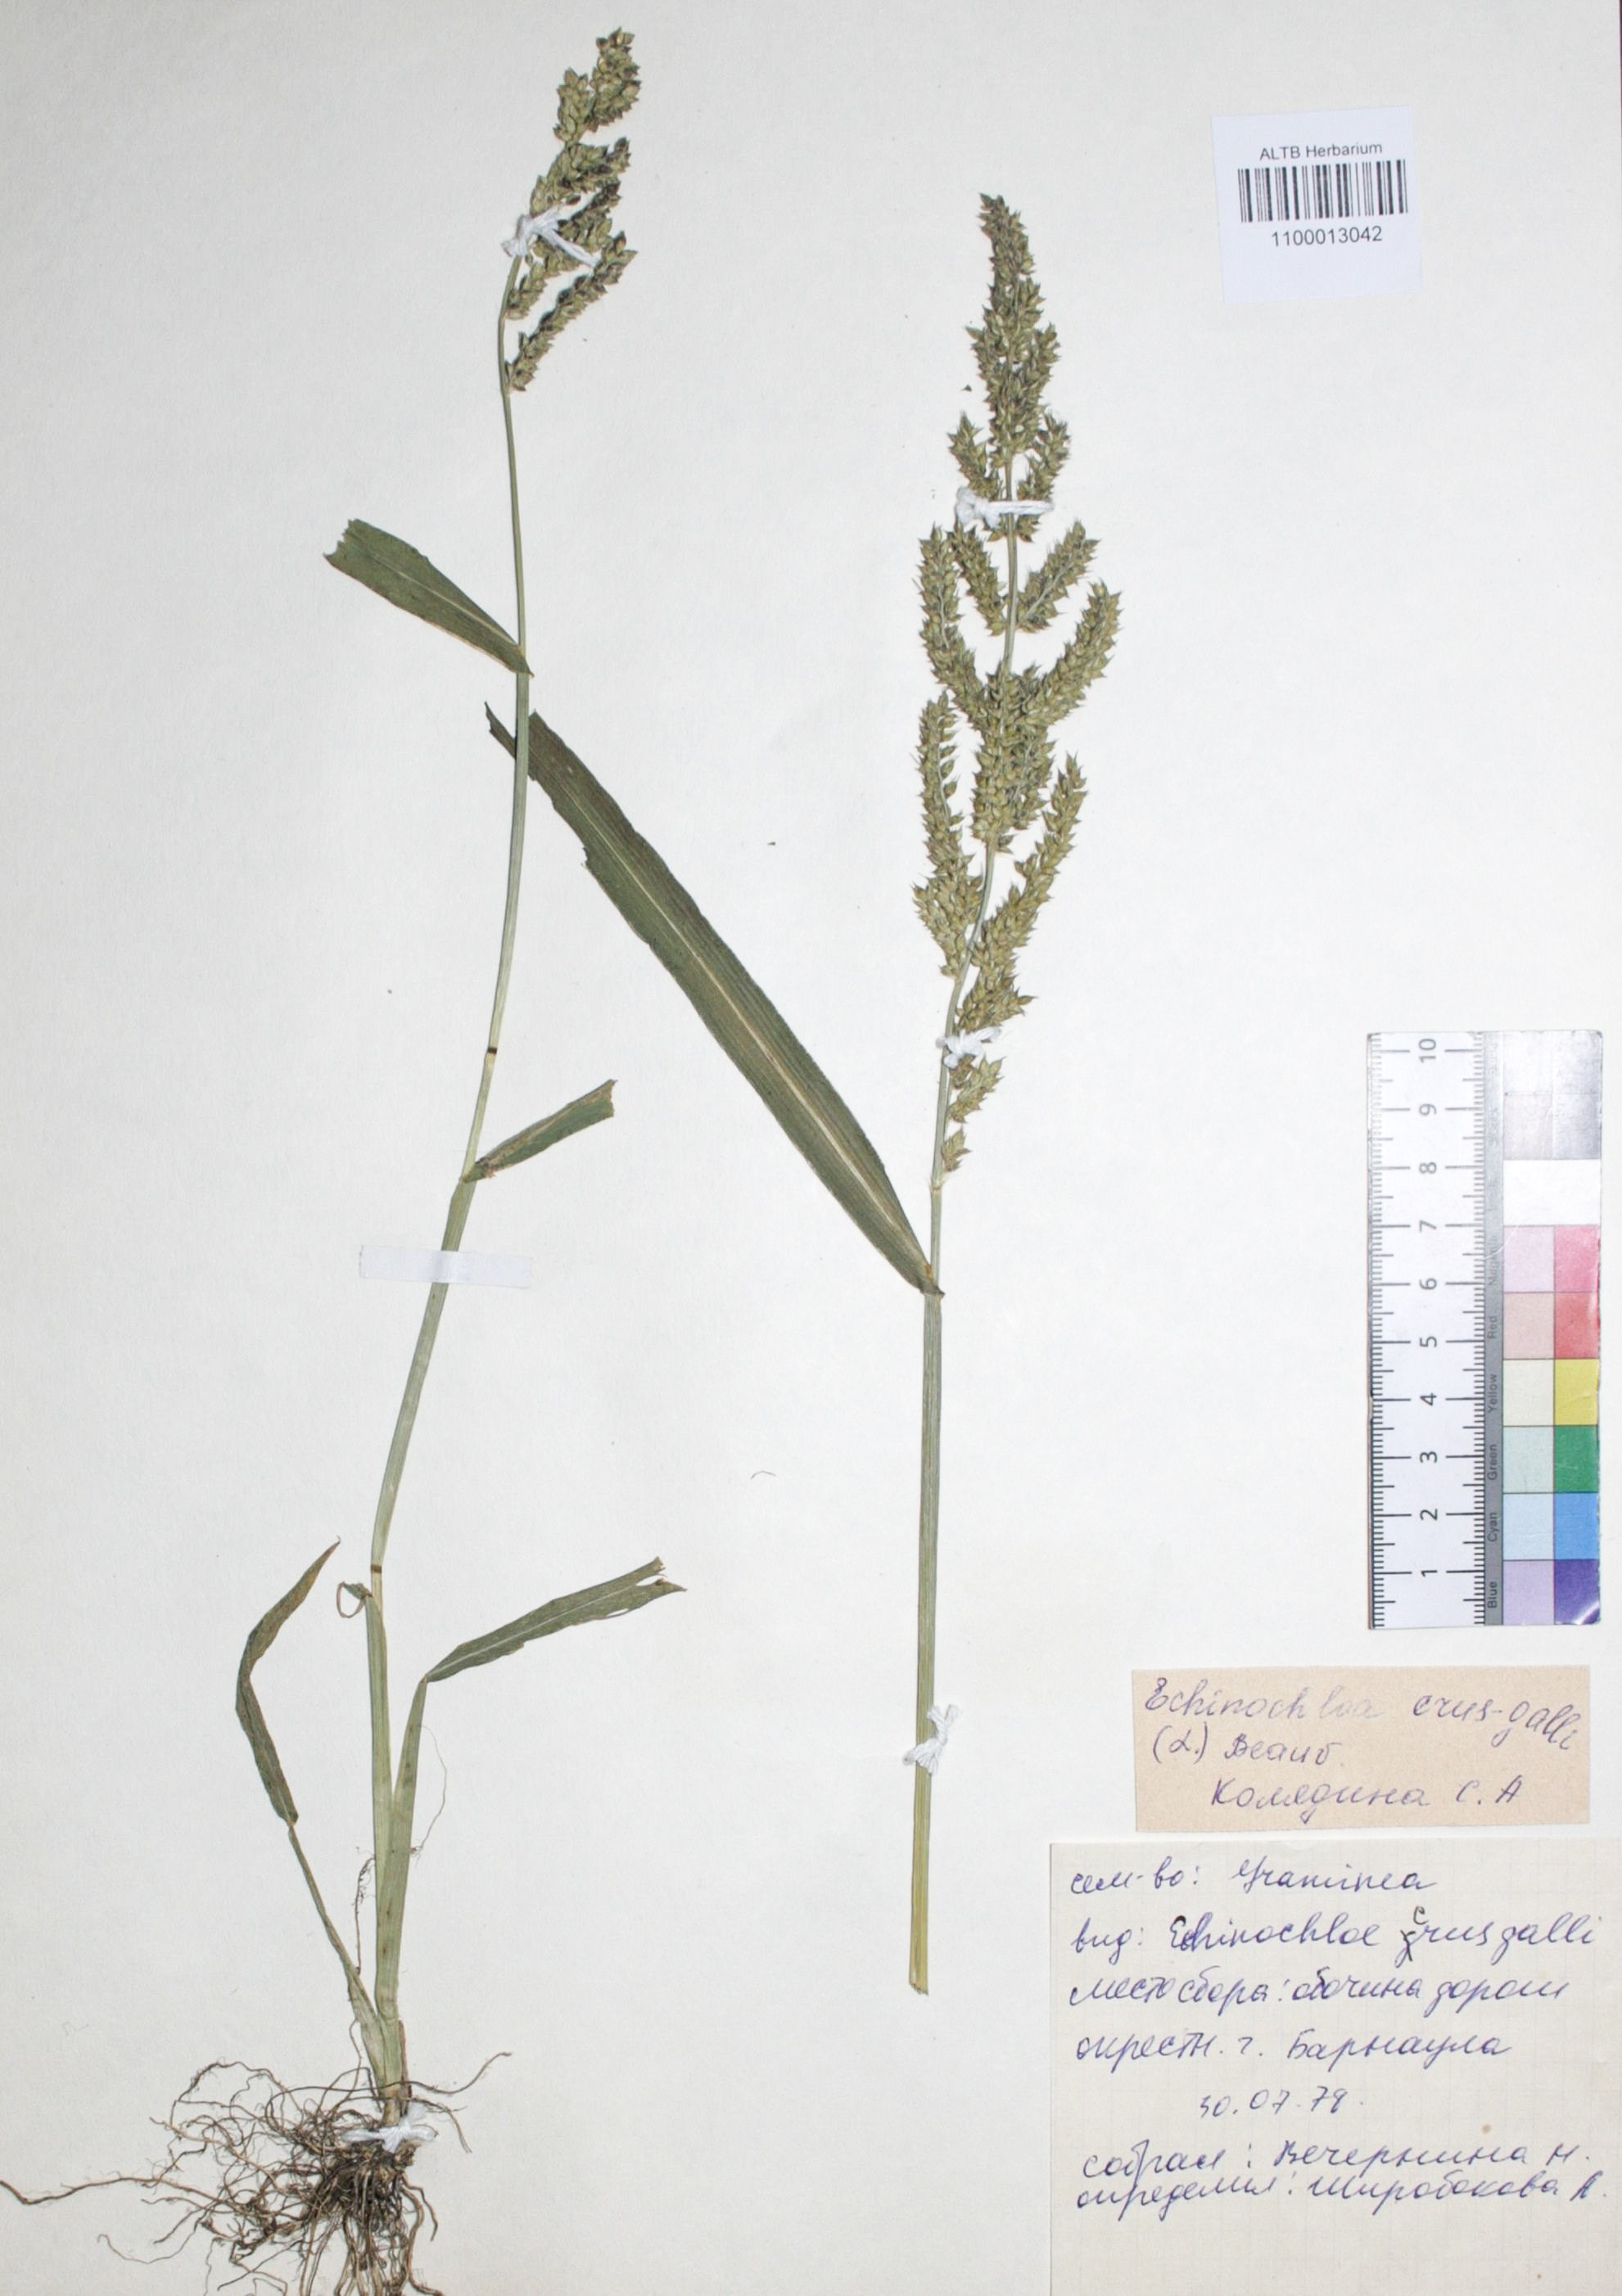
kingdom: Plantae
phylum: Tracheophyta
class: Liliopsida
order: Poales
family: Poaceae
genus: Echinochloa
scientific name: Echinochloa crus-galli
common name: Cockspur
